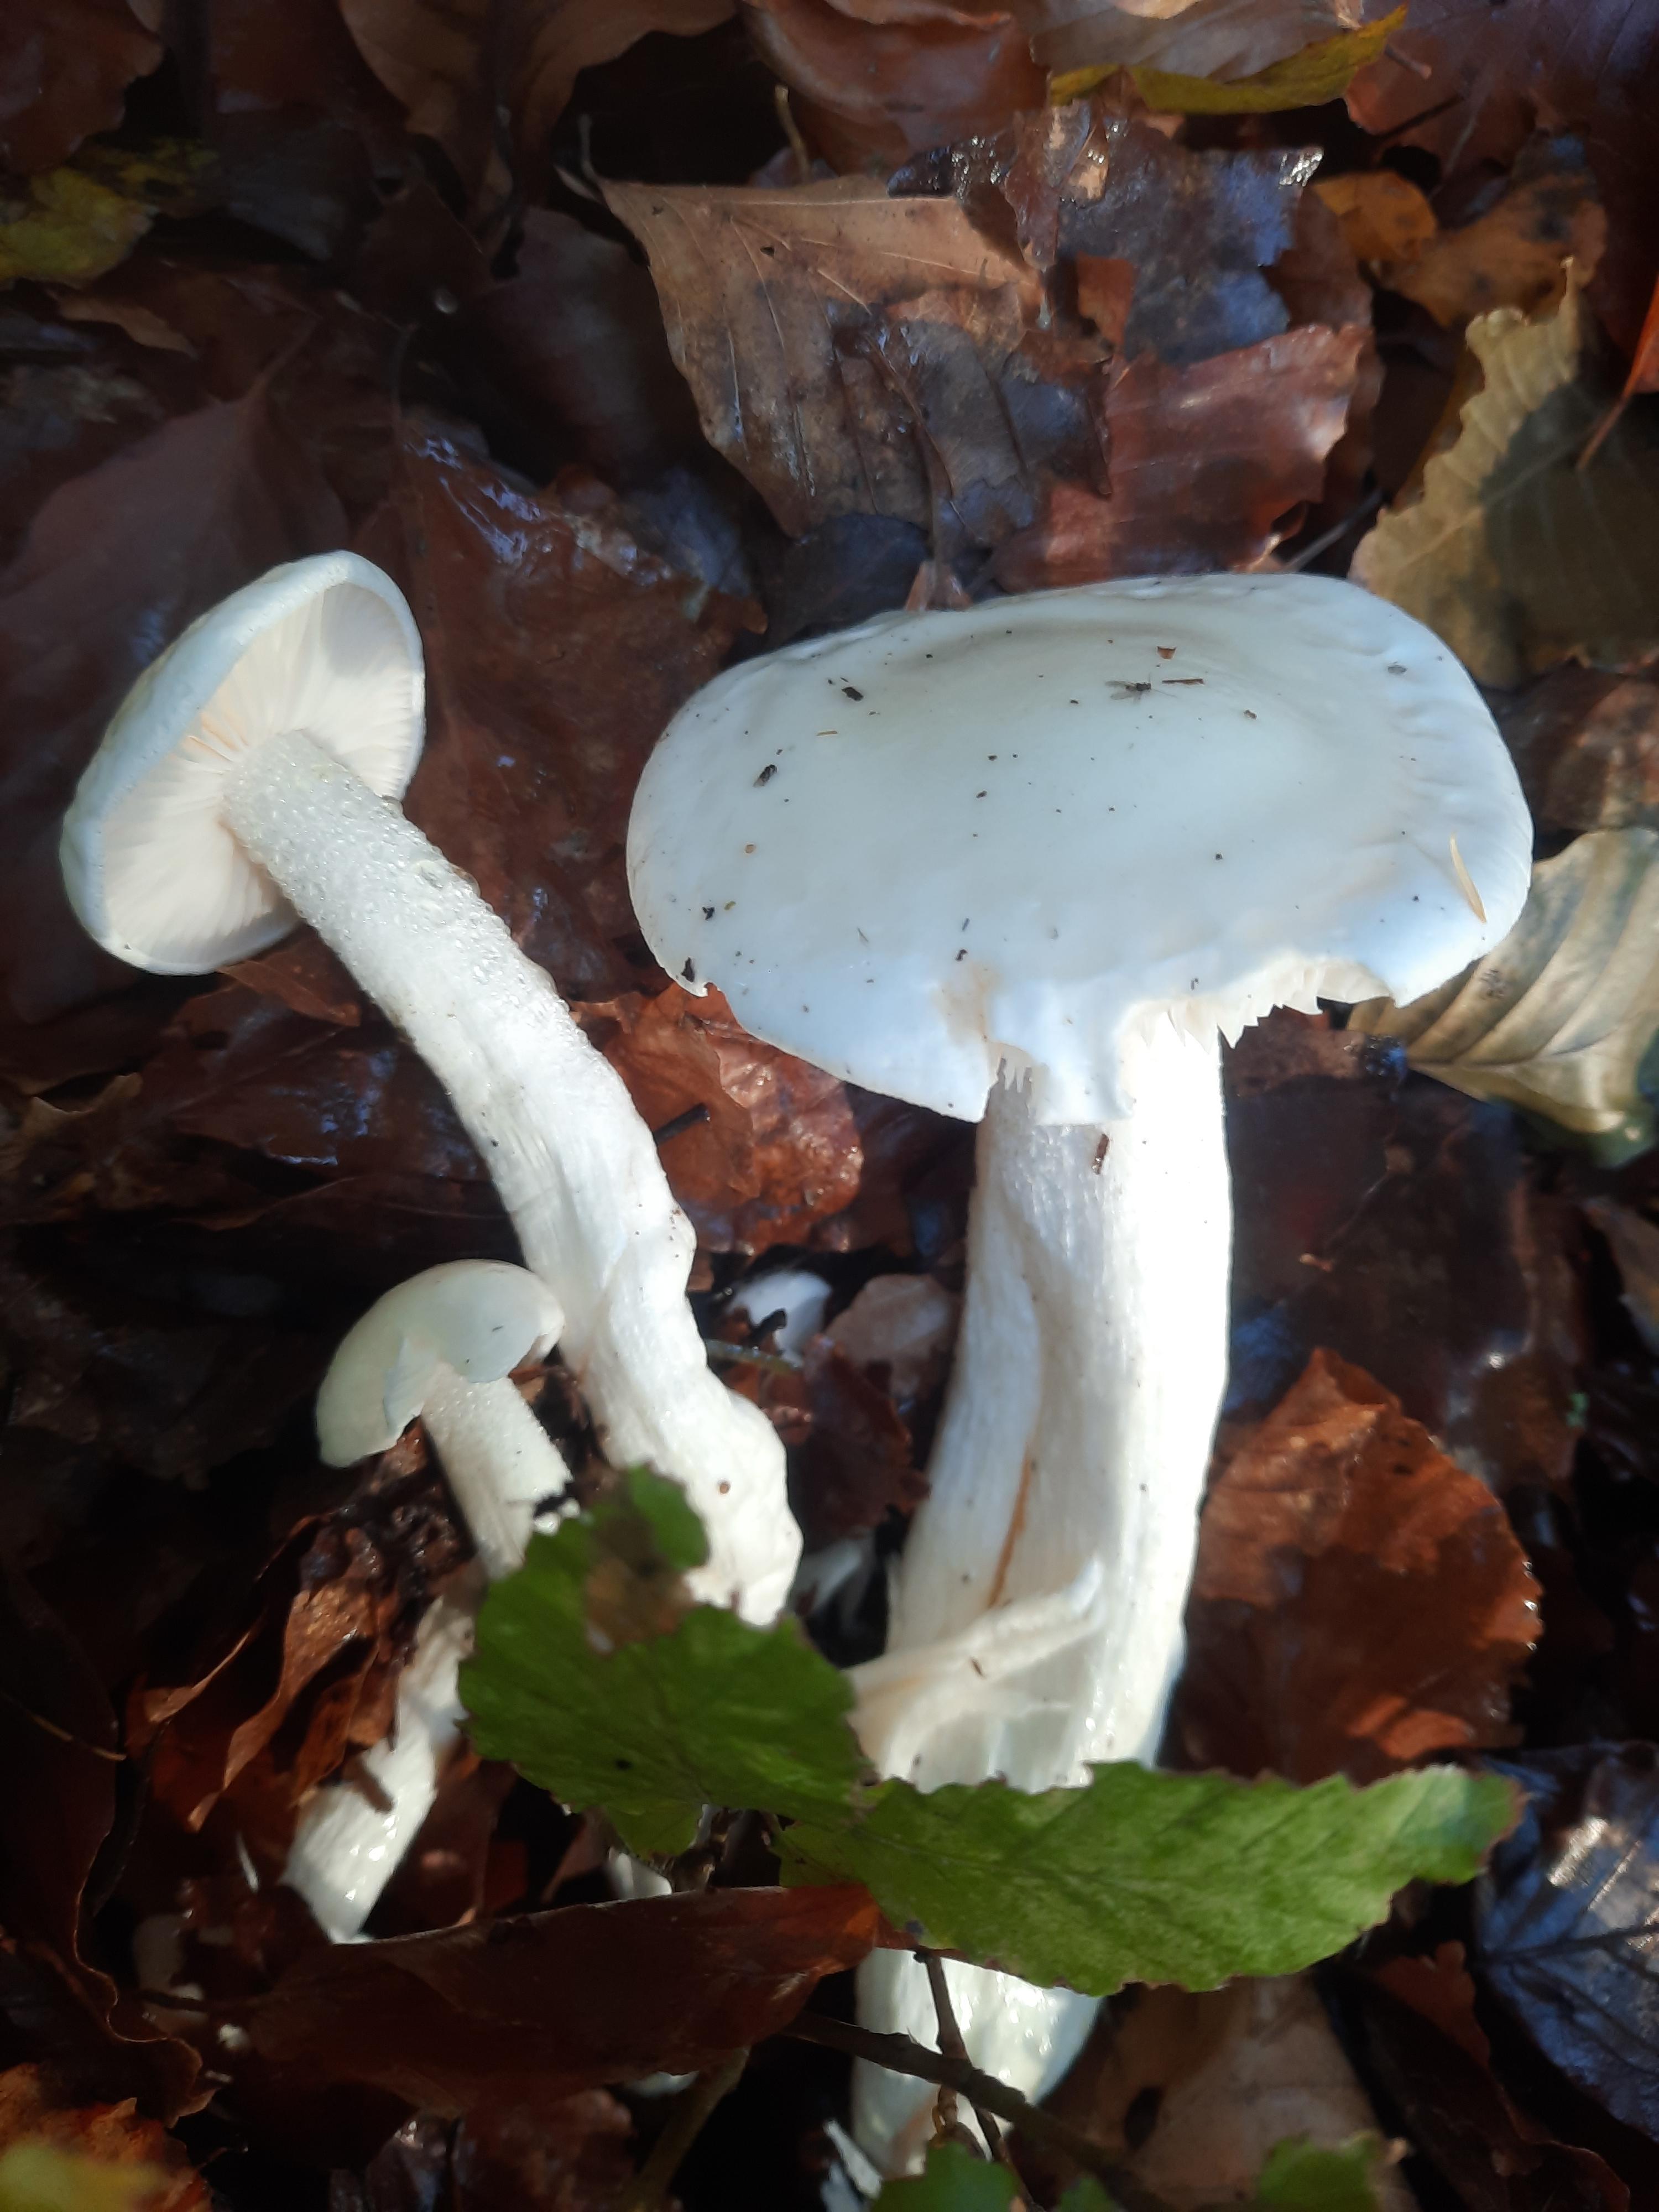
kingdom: Fungi
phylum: Basidiomycota
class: Agaricomycetes
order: Agaricales
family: Hygrophoraceae
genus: Hygrophorus
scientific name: Hygrophorus
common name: sneglehat
